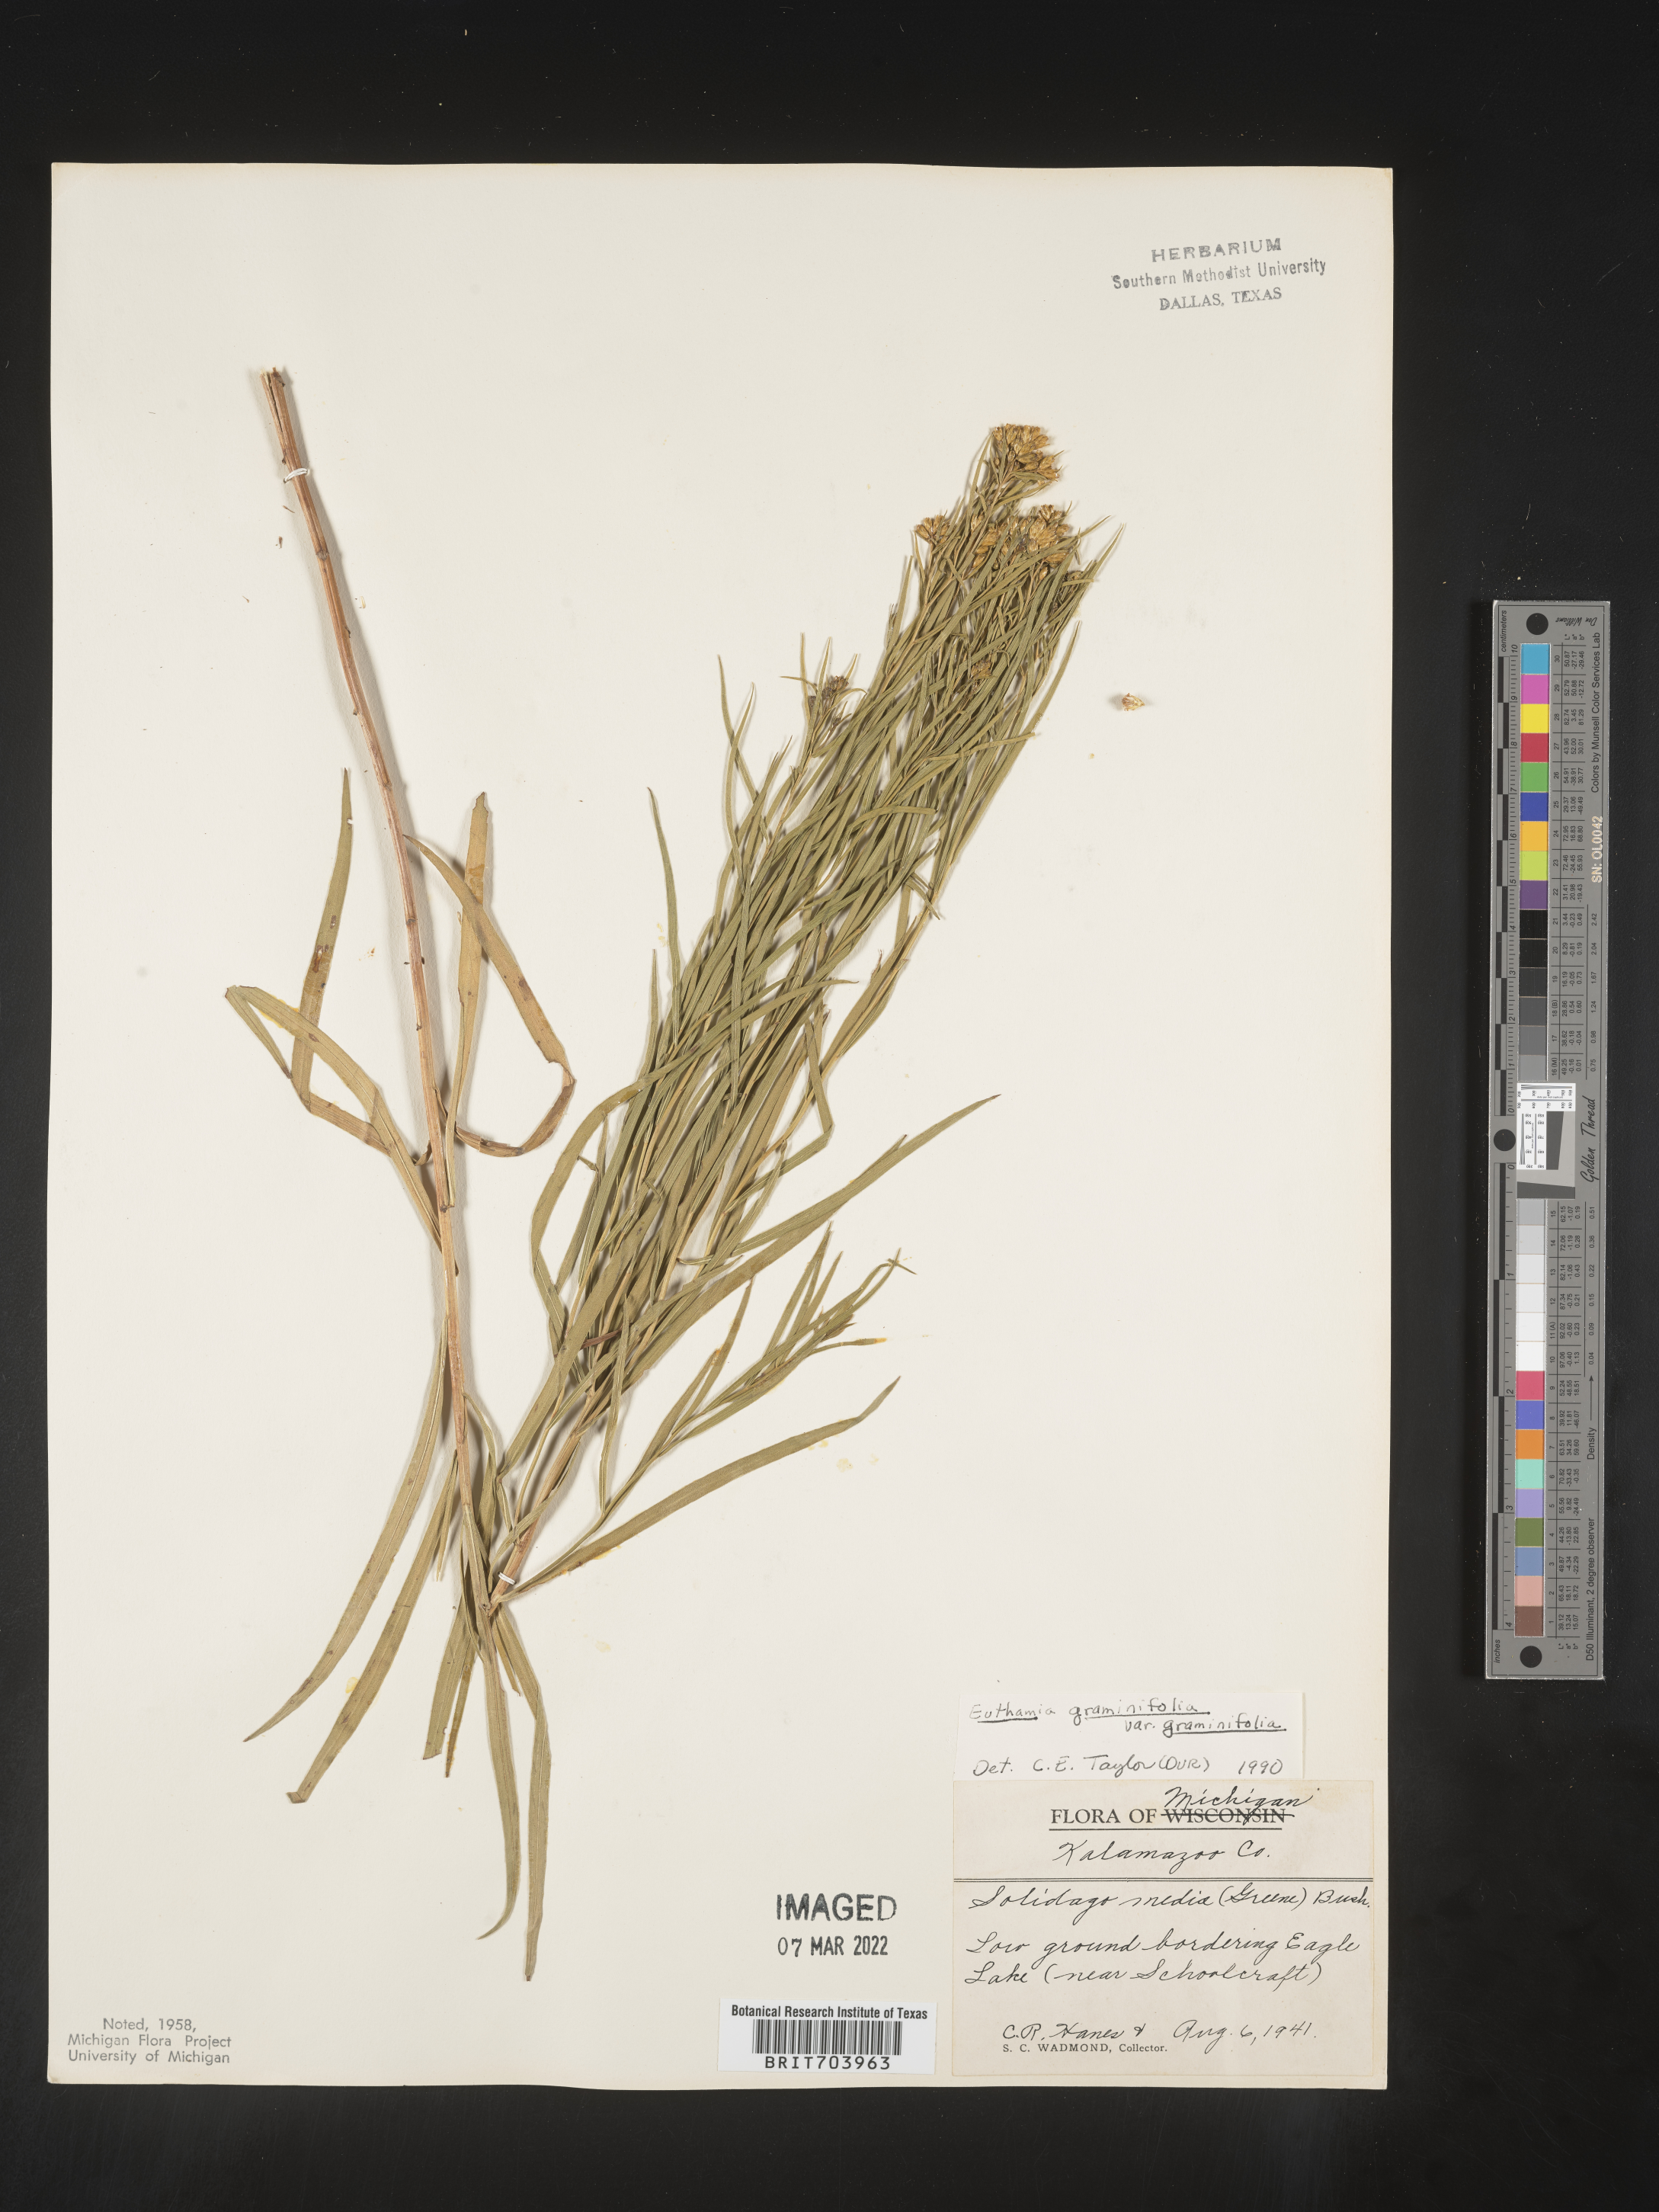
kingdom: Plantae
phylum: Tracheophyta
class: Magnoliopsida
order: Asterales
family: Asteraceae
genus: Euthamia
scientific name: Euthamia graminifolia
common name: Common goldentop
